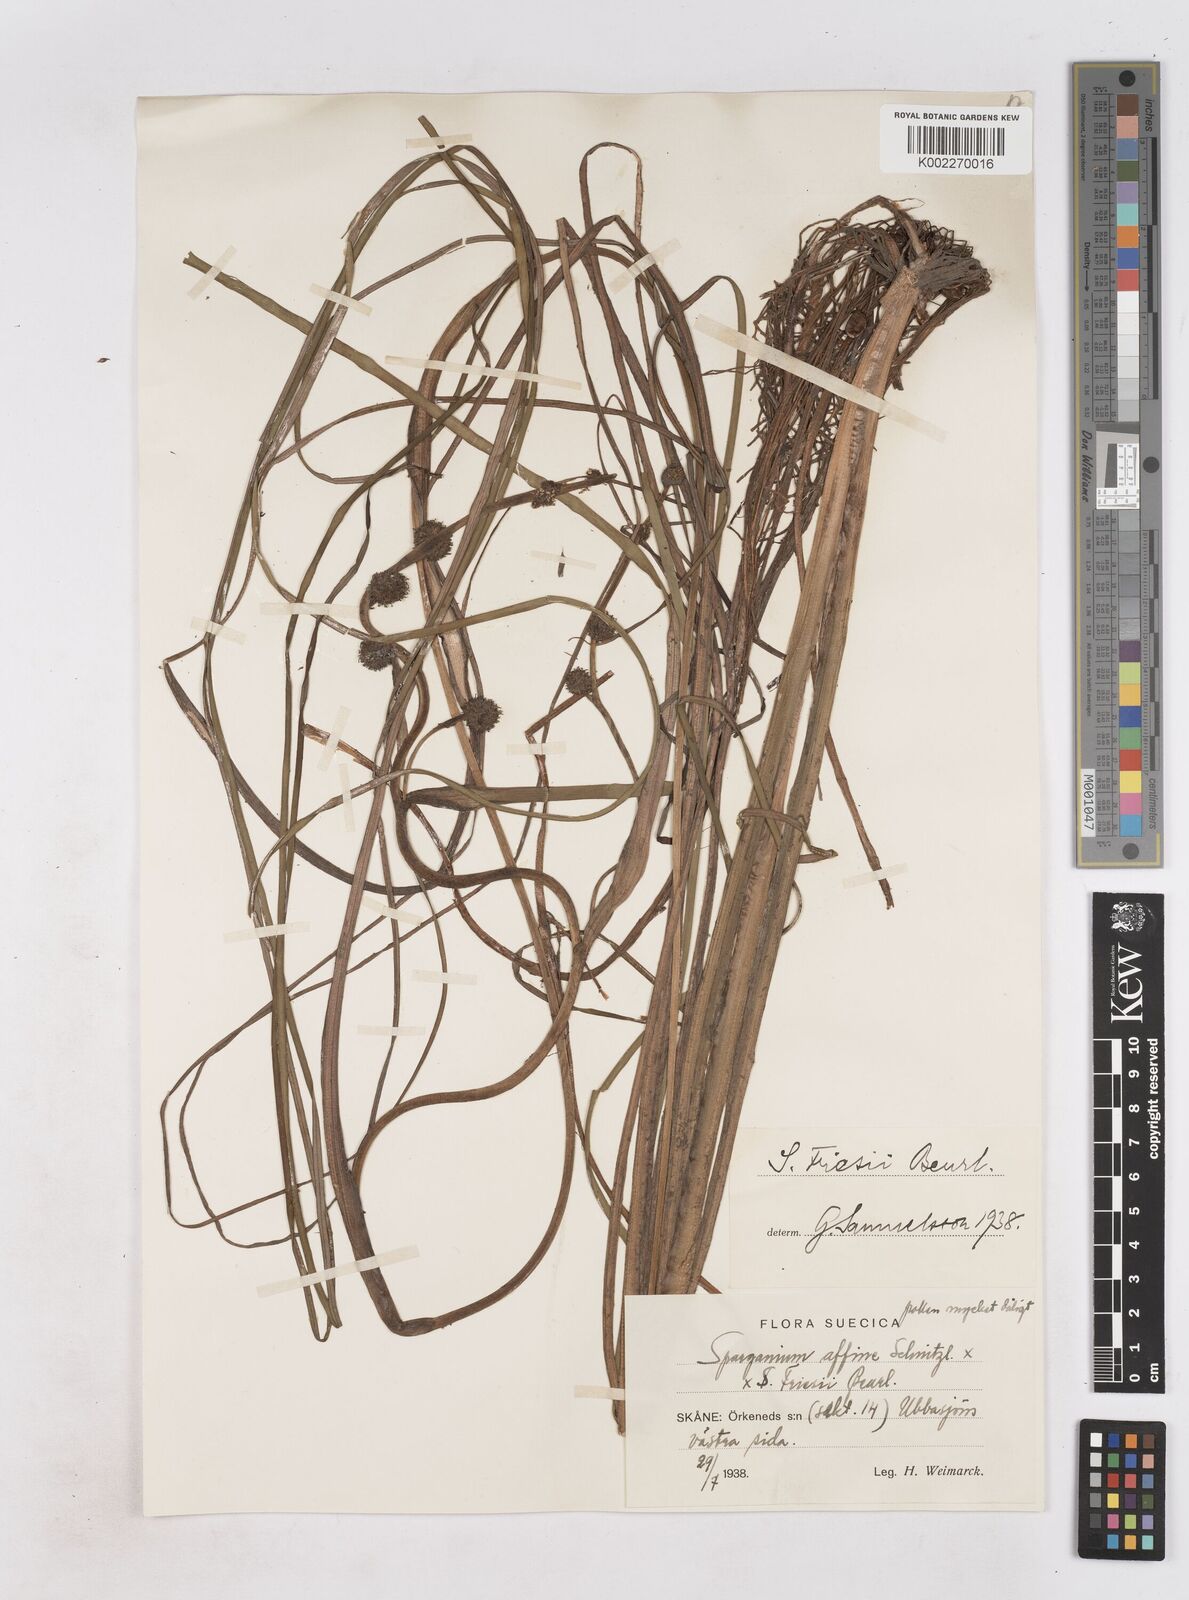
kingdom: Plantae
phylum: Tracheophyta
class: Liliopsida
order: Poales
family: Typhaceae
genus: Sparganium
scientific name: Sparganium gramineum
